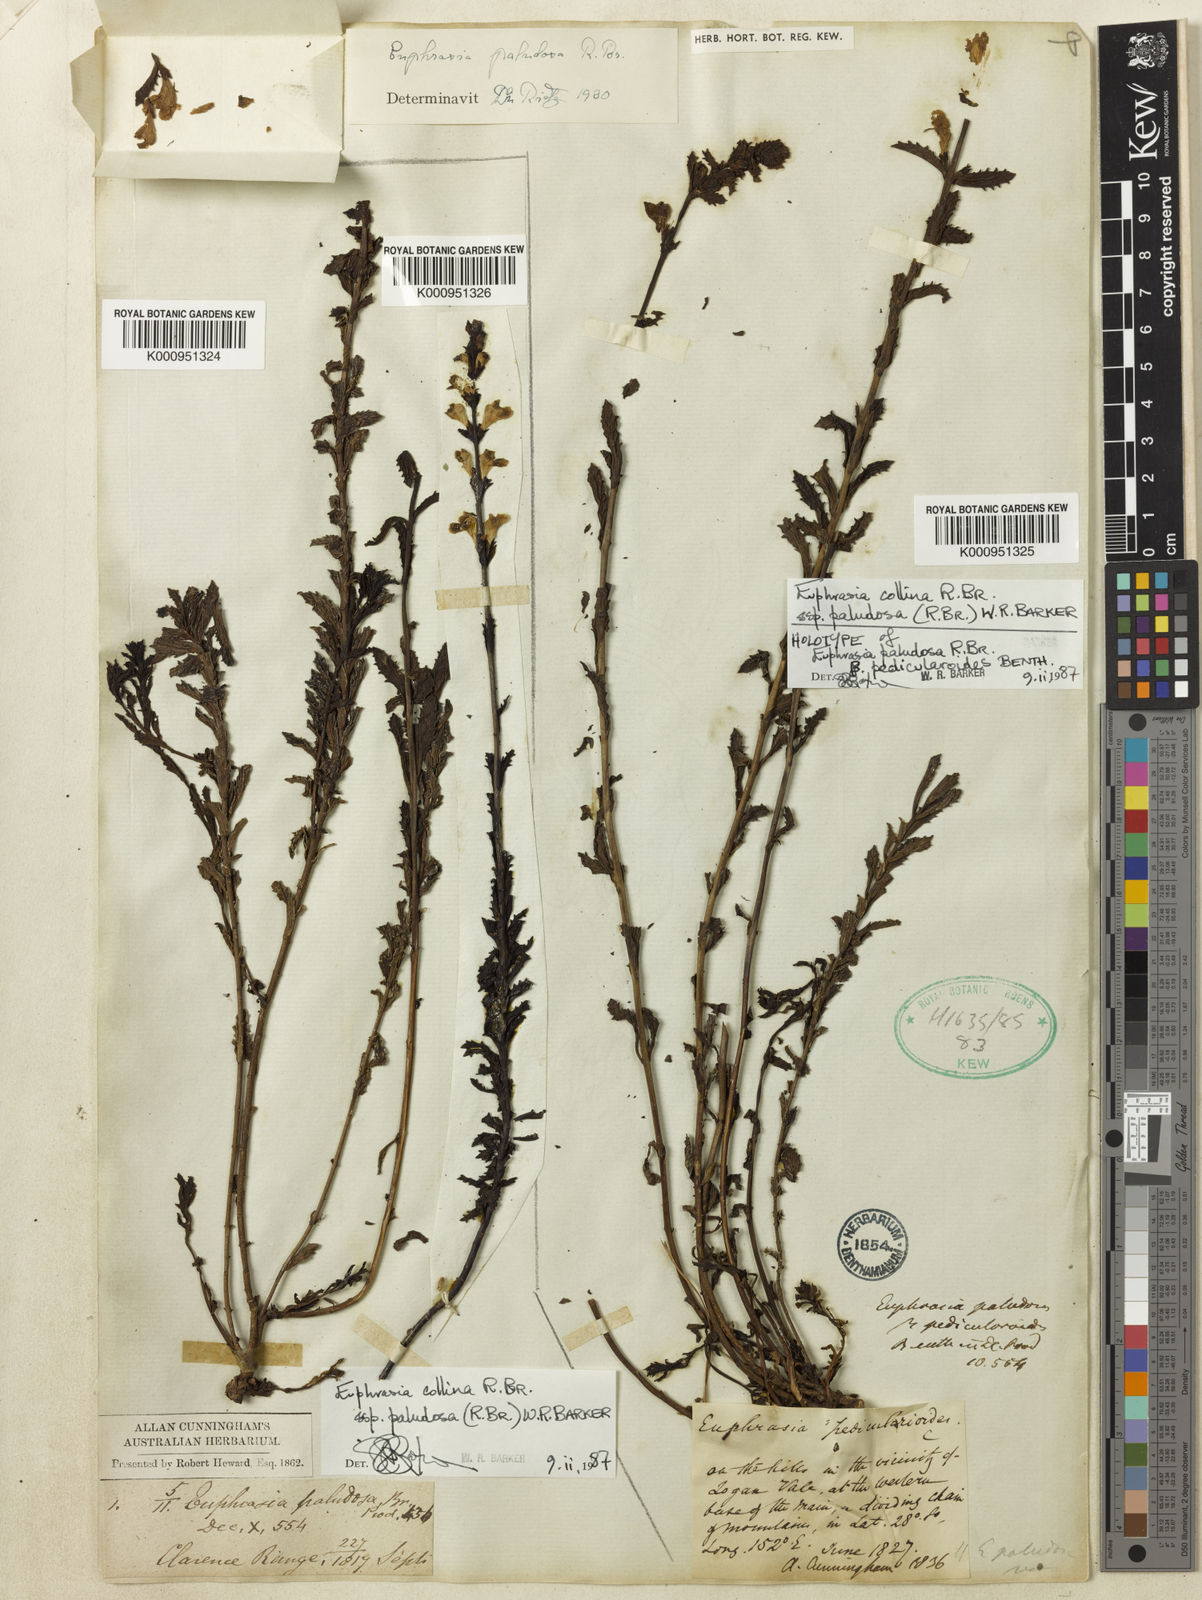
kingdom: Plantae
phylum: Tracheophyta
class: Magnoliopsida
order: Lamiales
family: Orobanchaceae
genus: Euphrasia
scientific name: Euphrasia collina
